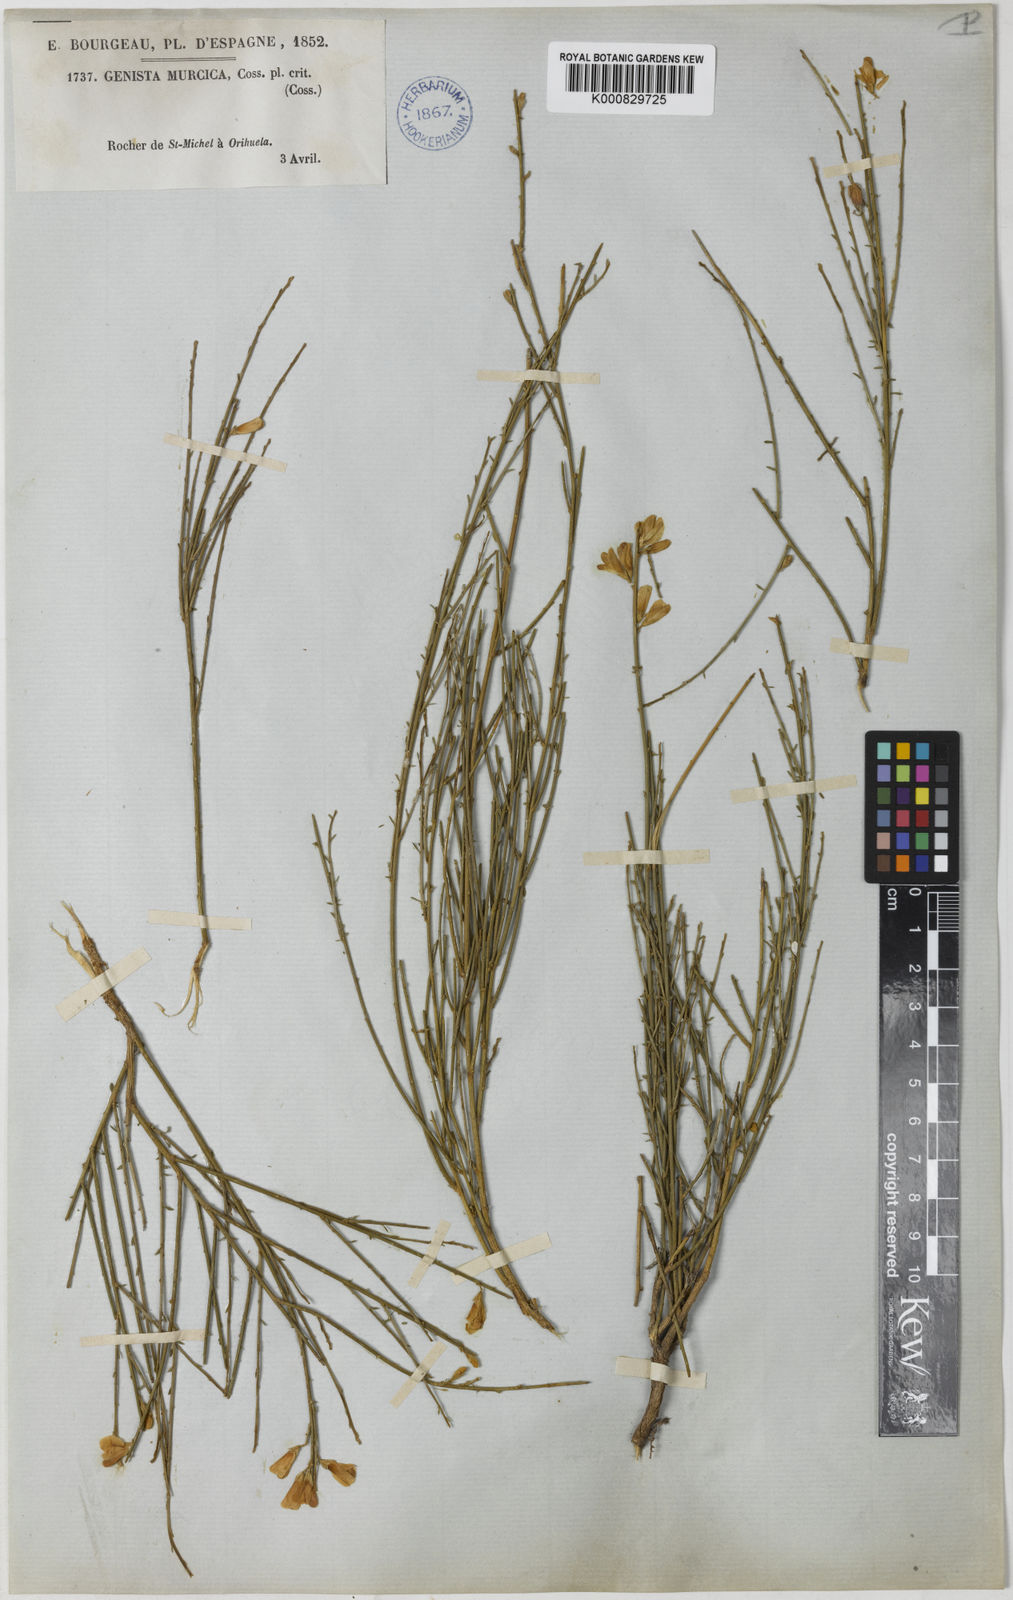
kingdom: Plantae
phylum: Tracheophyta
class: Magnoliopsida
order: Fabales
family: Fabaceae
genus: Genista
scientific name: Genista cinerea
